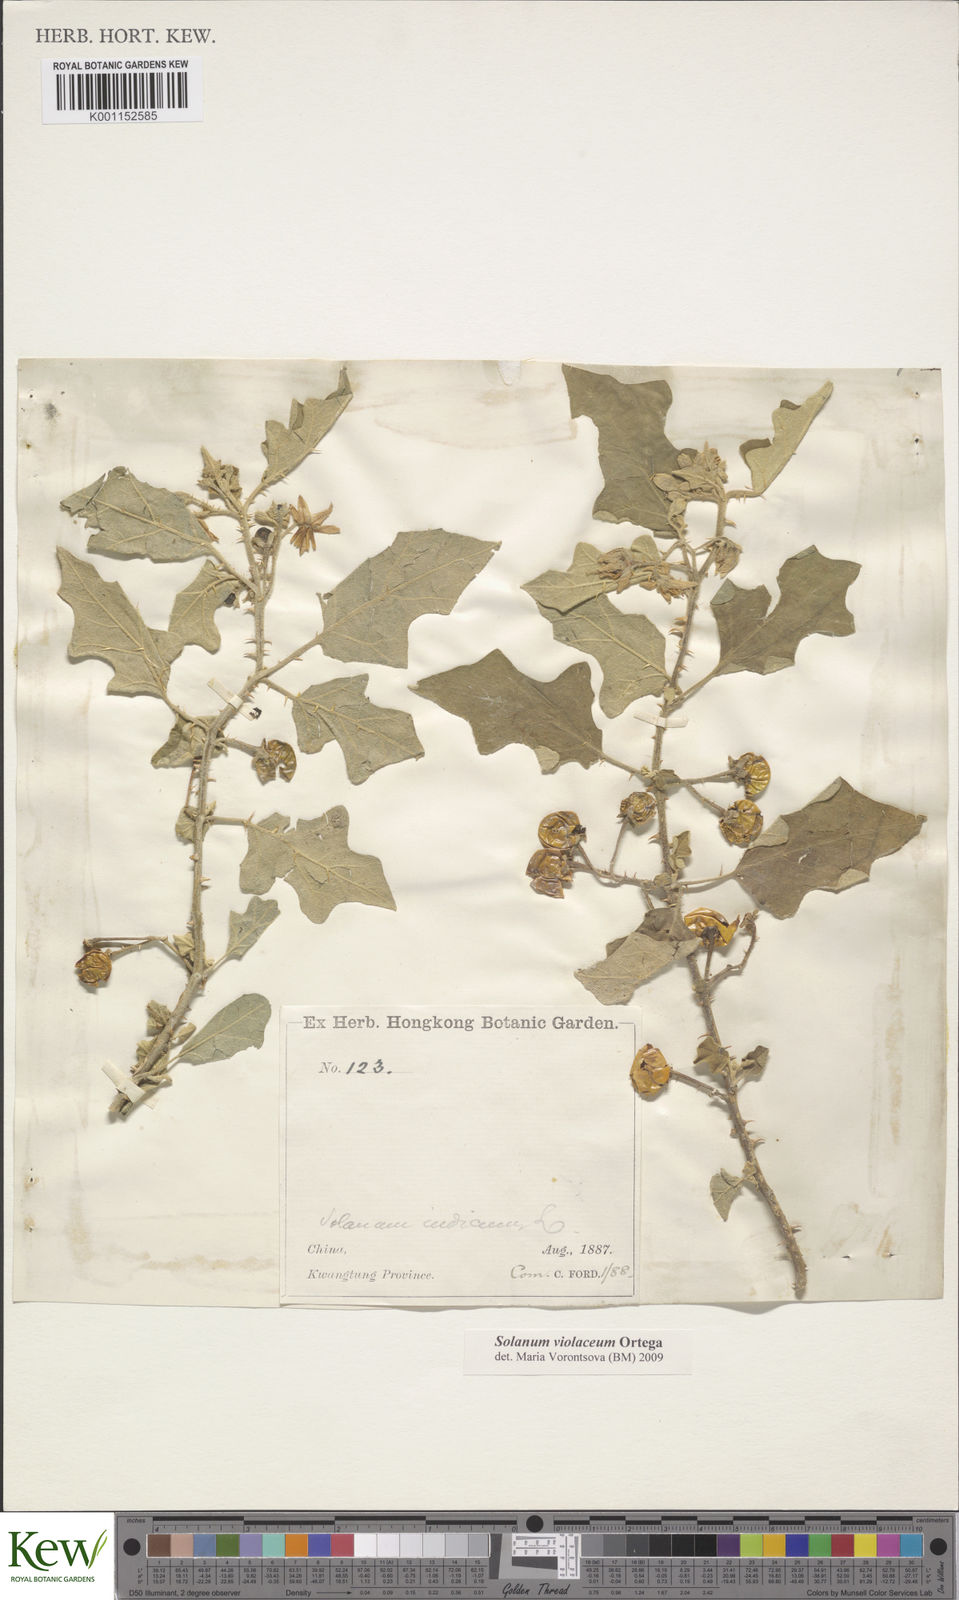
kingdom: Plantae
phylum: Tracheophyta
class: Magnoliopsida
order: Solanales
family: Solanaceae
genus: Solanum
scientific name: Solanum violaceum
